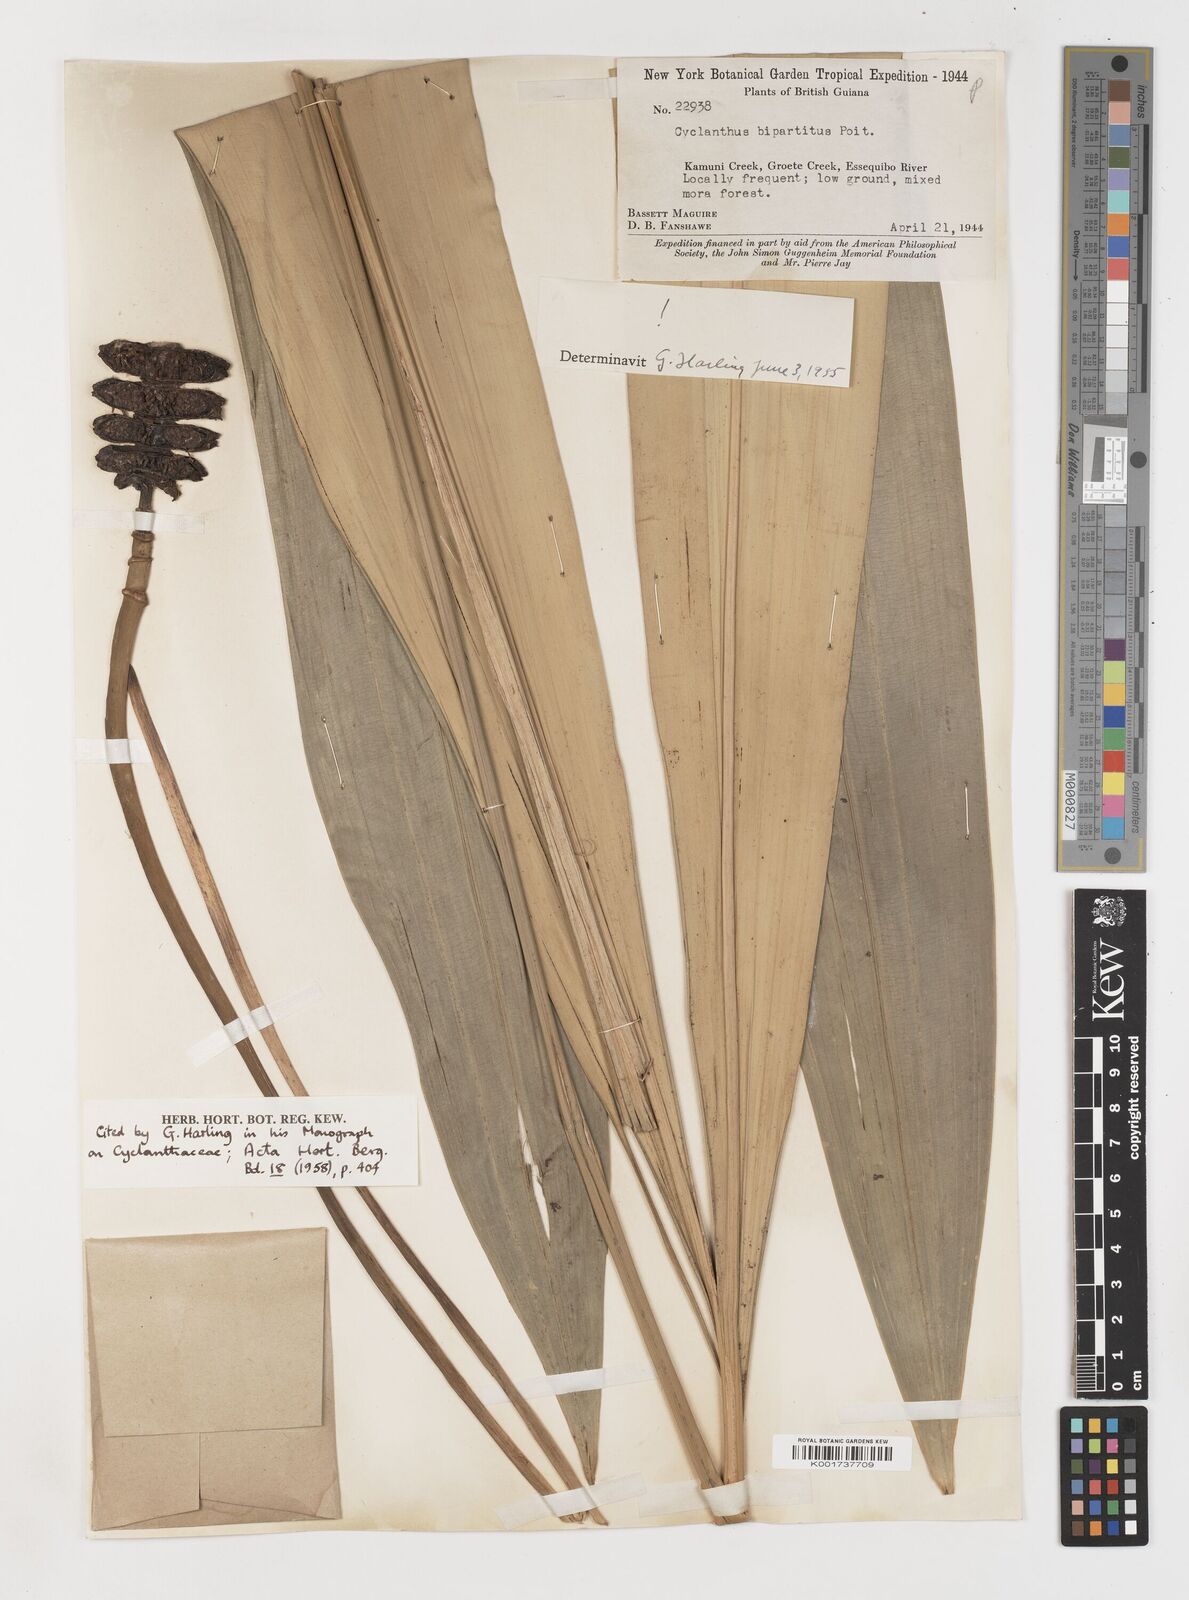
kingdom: Plantae
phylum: Tracheophyta
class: Liliopsida
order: Pandanales
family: Cyclanthaceae
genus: Cyclanthus
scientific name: Cyclanthus bipartitus
